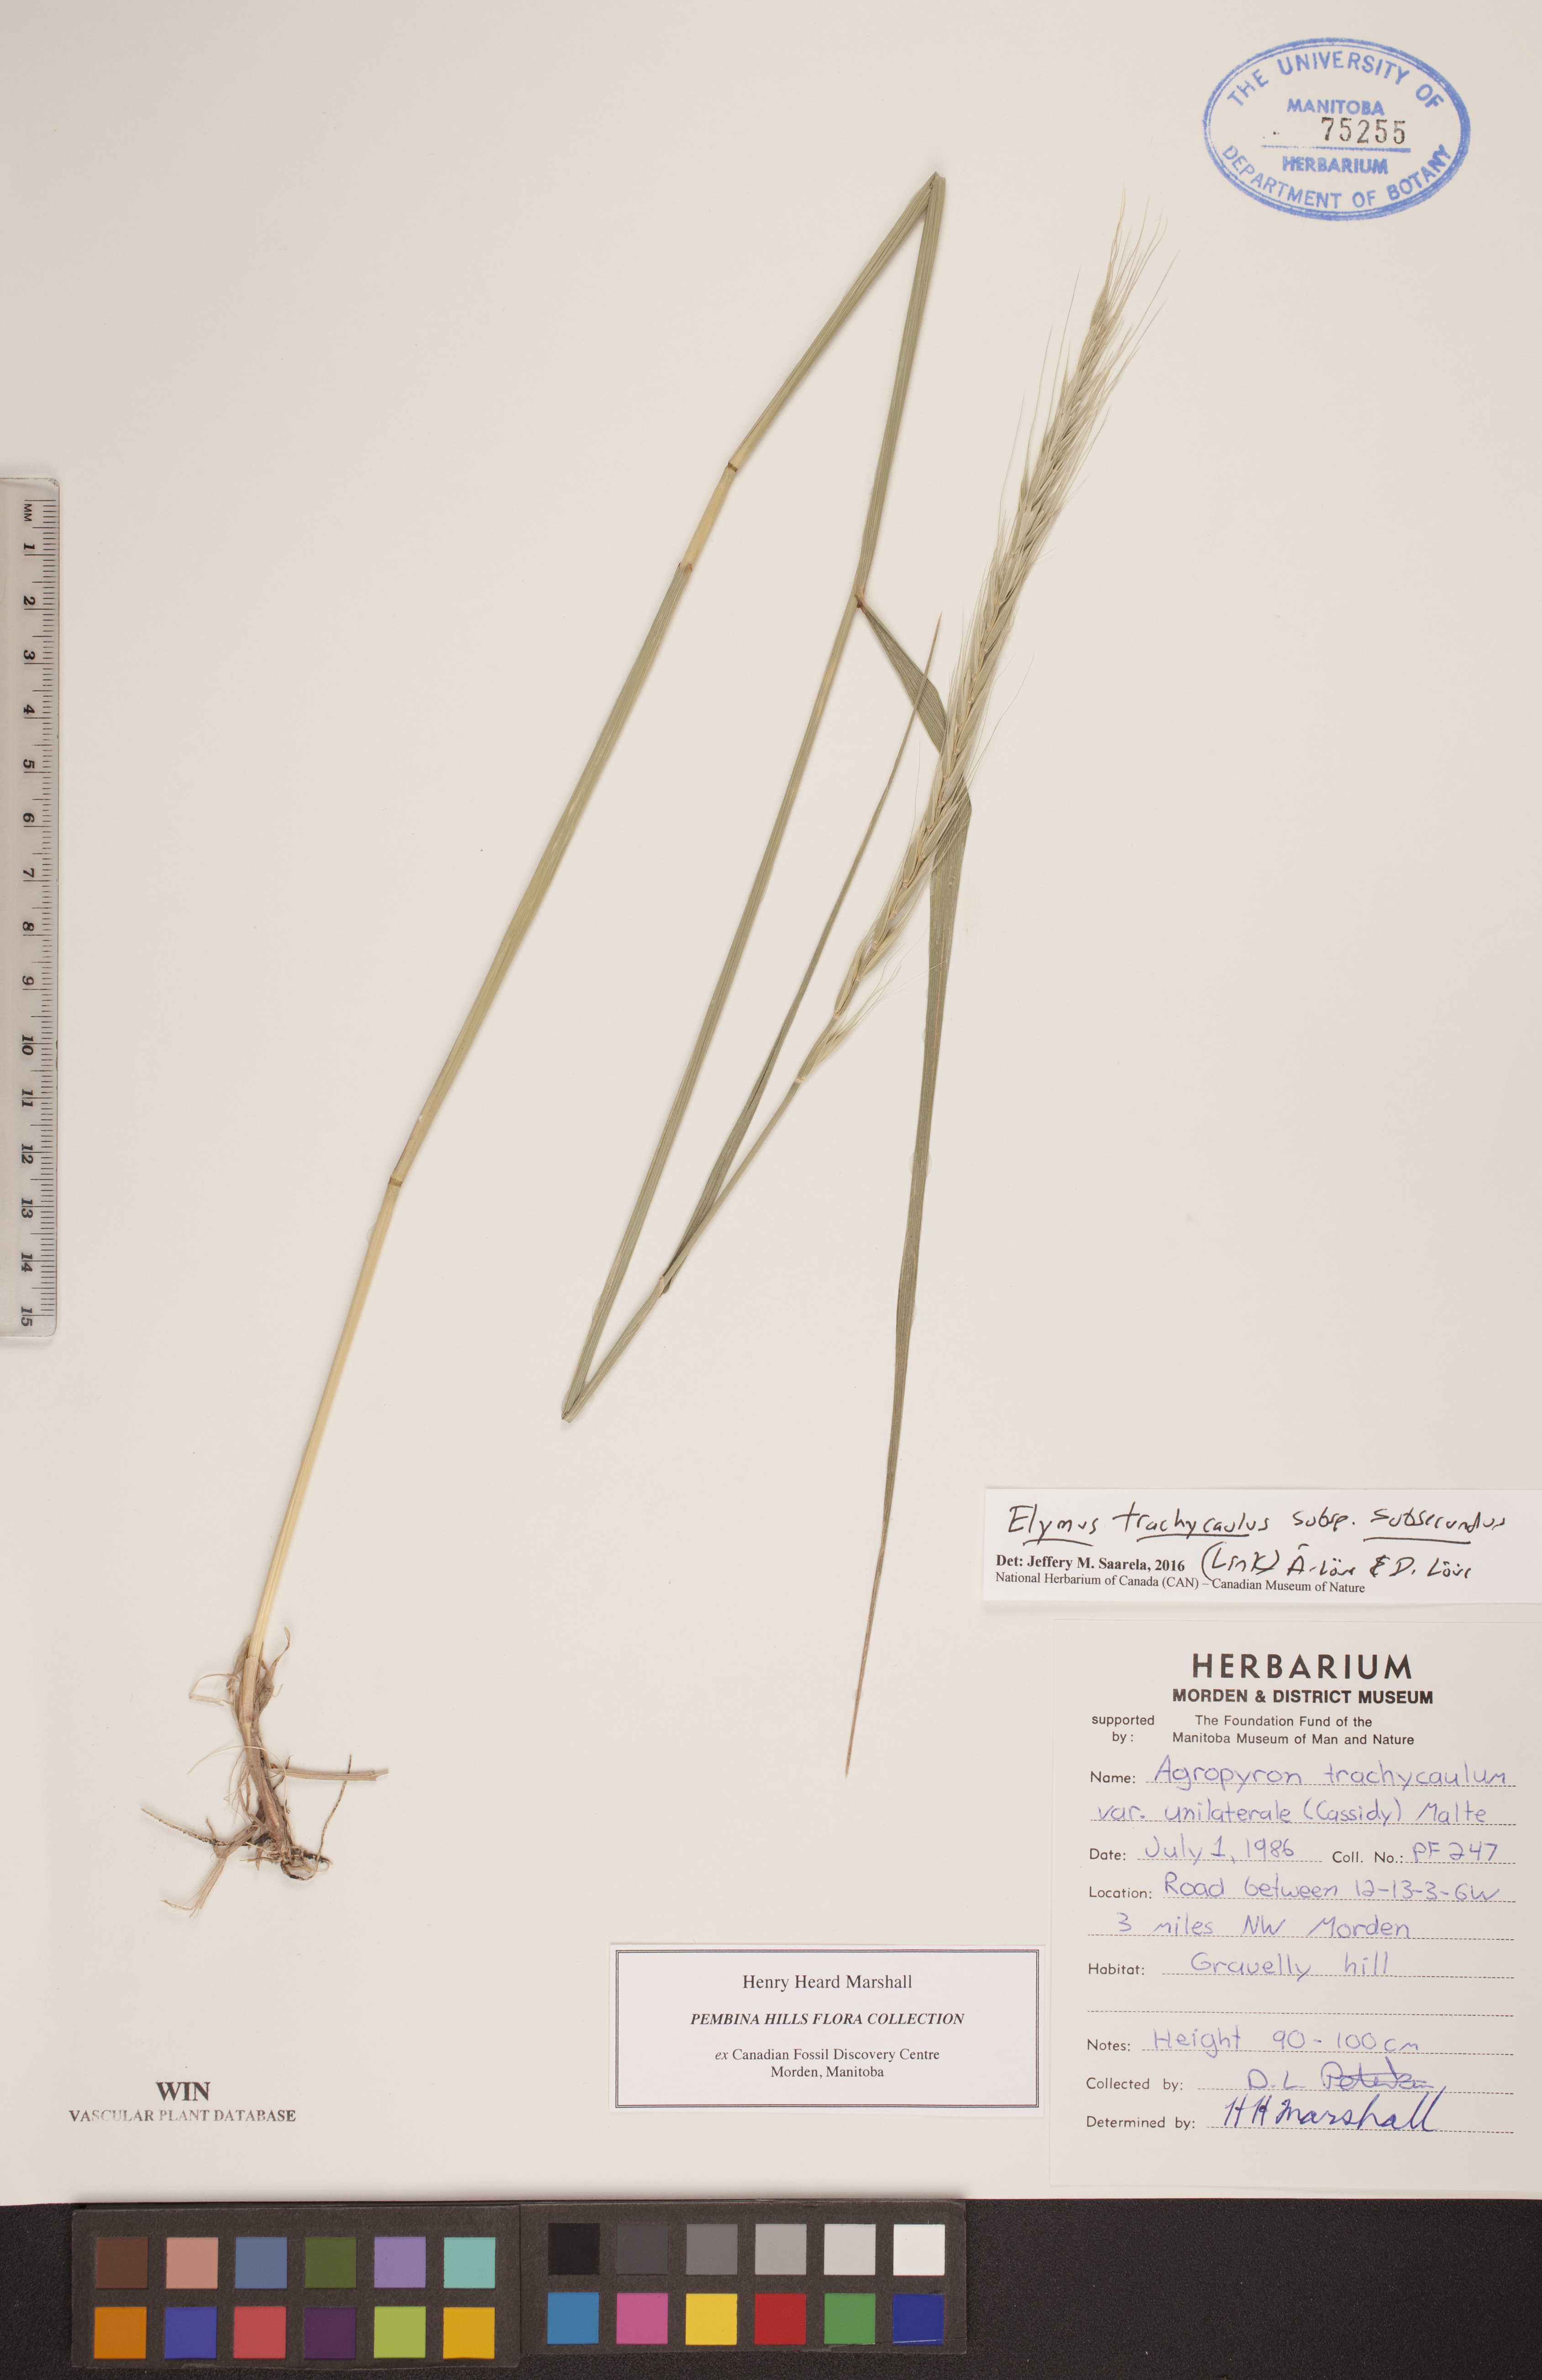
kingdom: Plantae
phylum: Tracheophyta
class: Liliopsida
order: Poales
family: Poaceae
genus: Elymus
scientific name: Elymus violaceus
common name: Arctic wheatgrass
